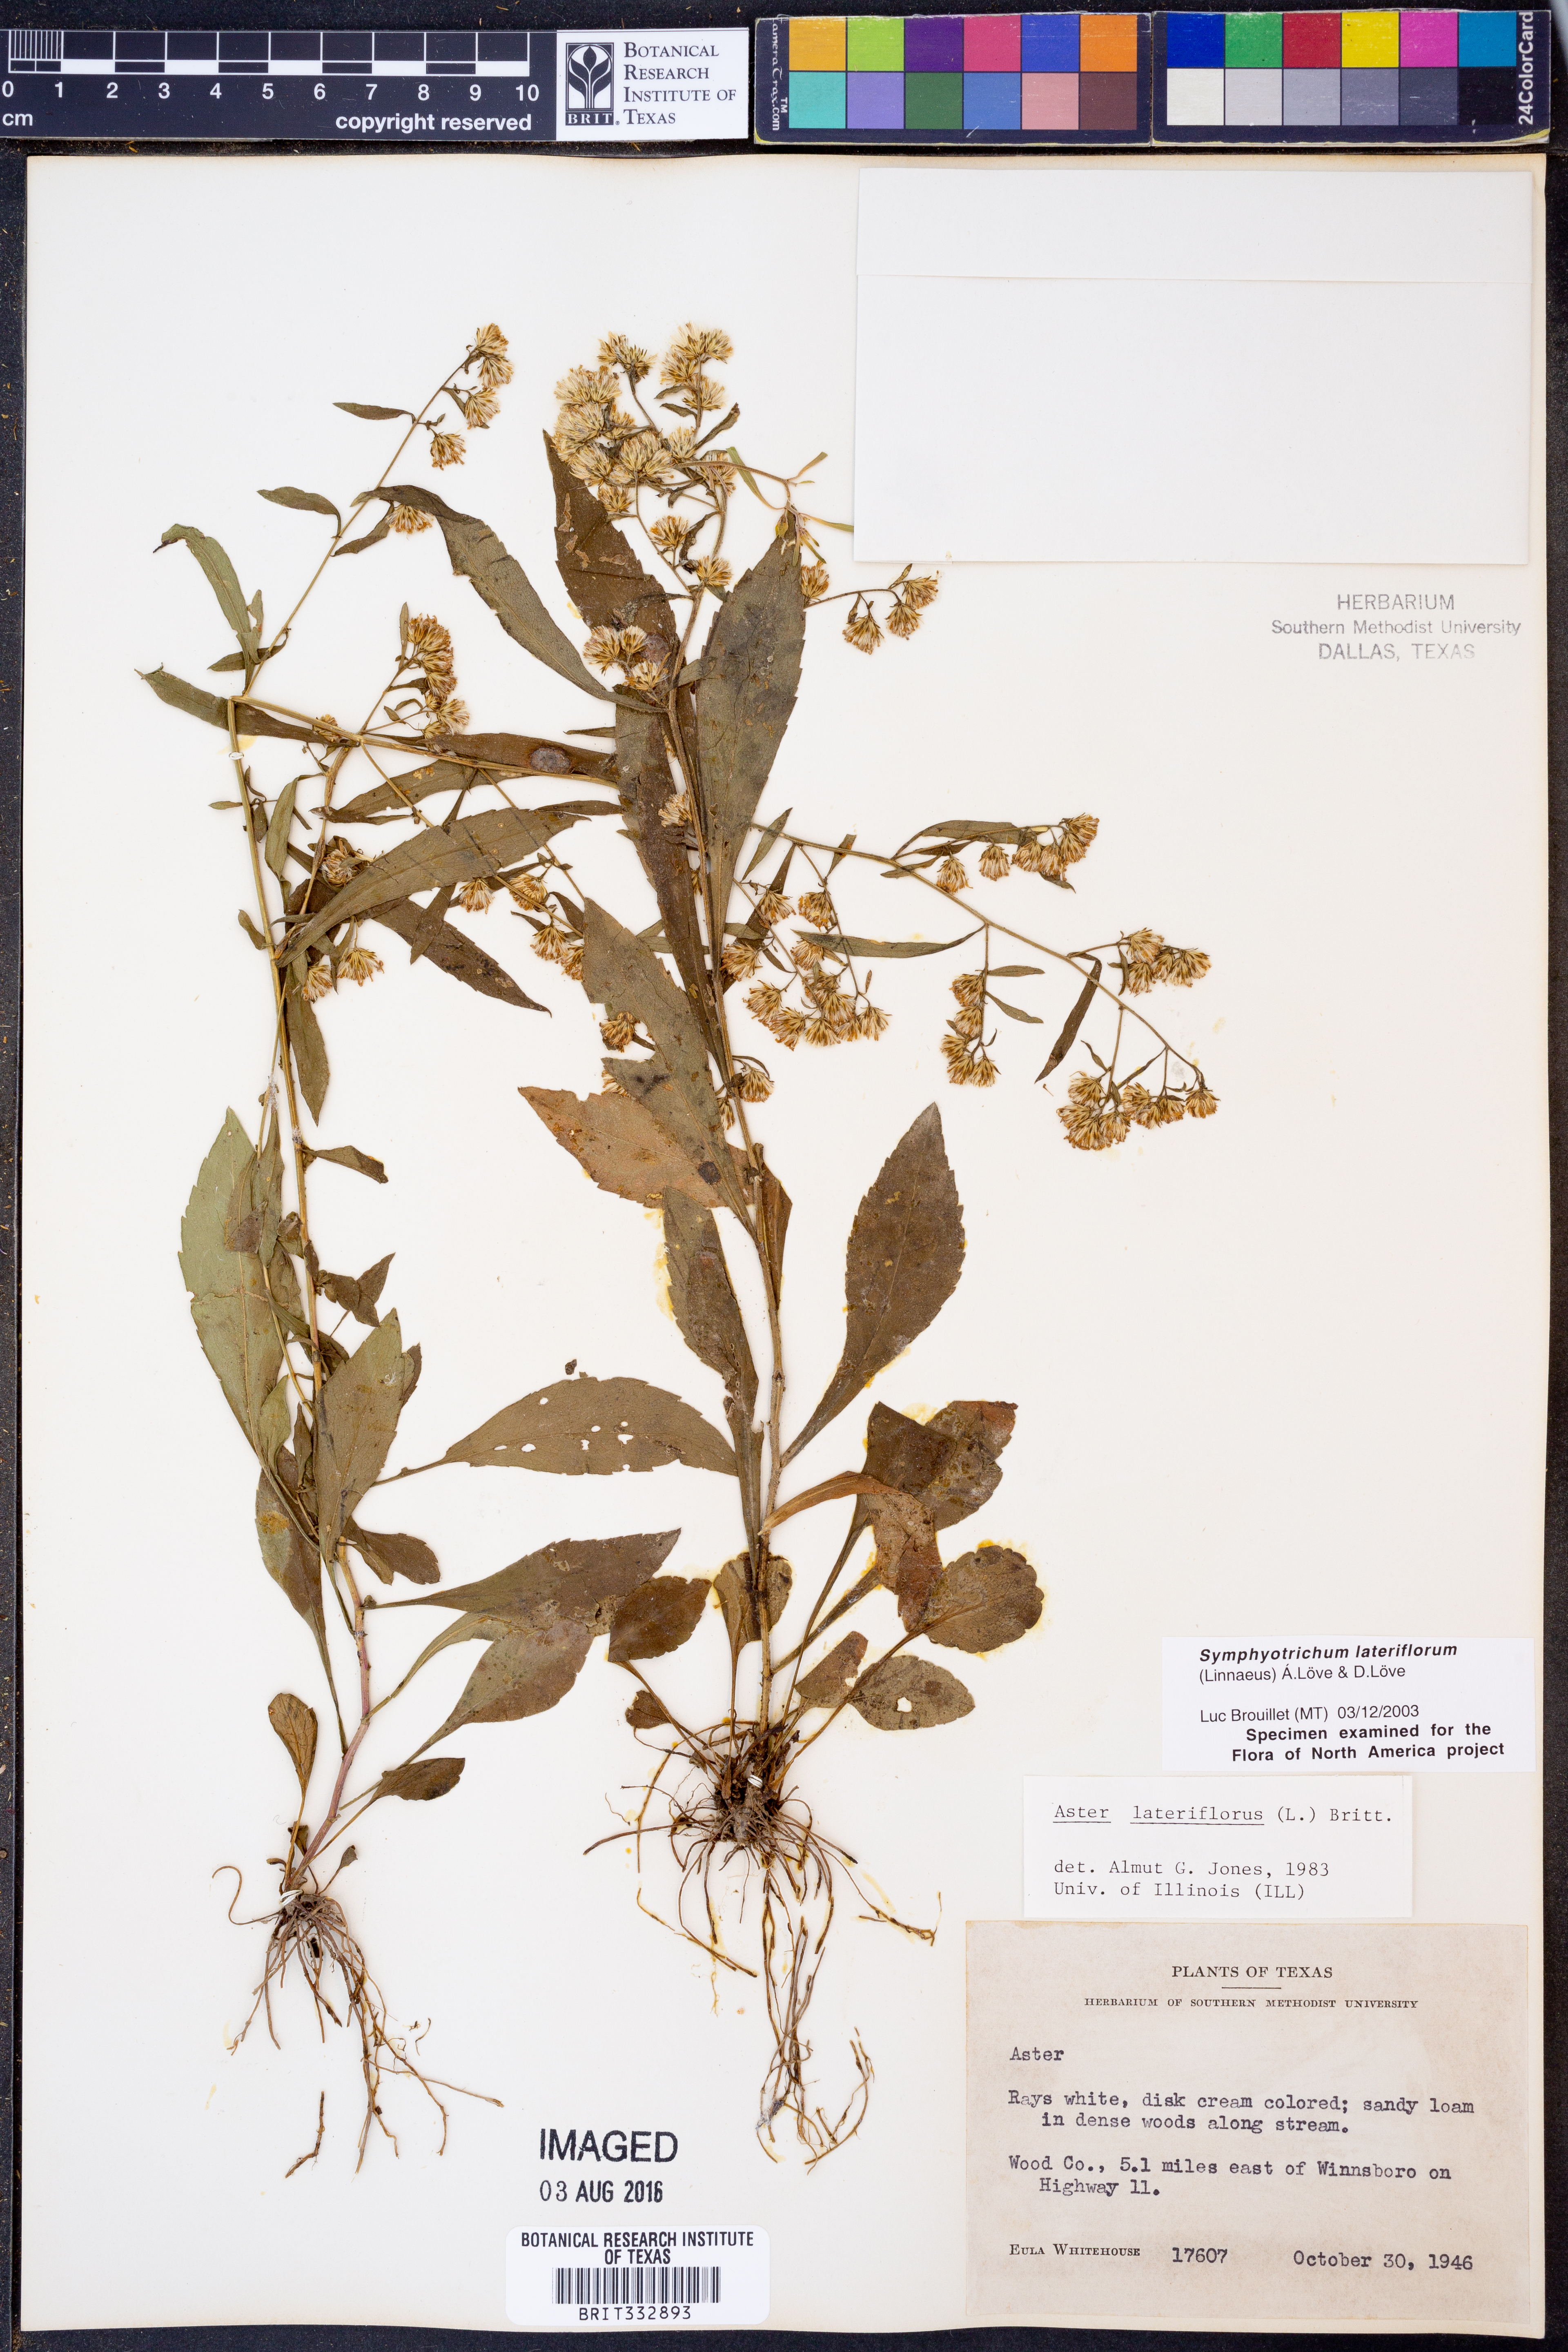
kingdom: Plantae
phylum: Tracheophyta
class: Magnoliopsida
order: Asterales
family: Asteraceae
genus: Symphyotrichum
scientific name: Symphyotrichum lateriflorum
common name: Calico aster
